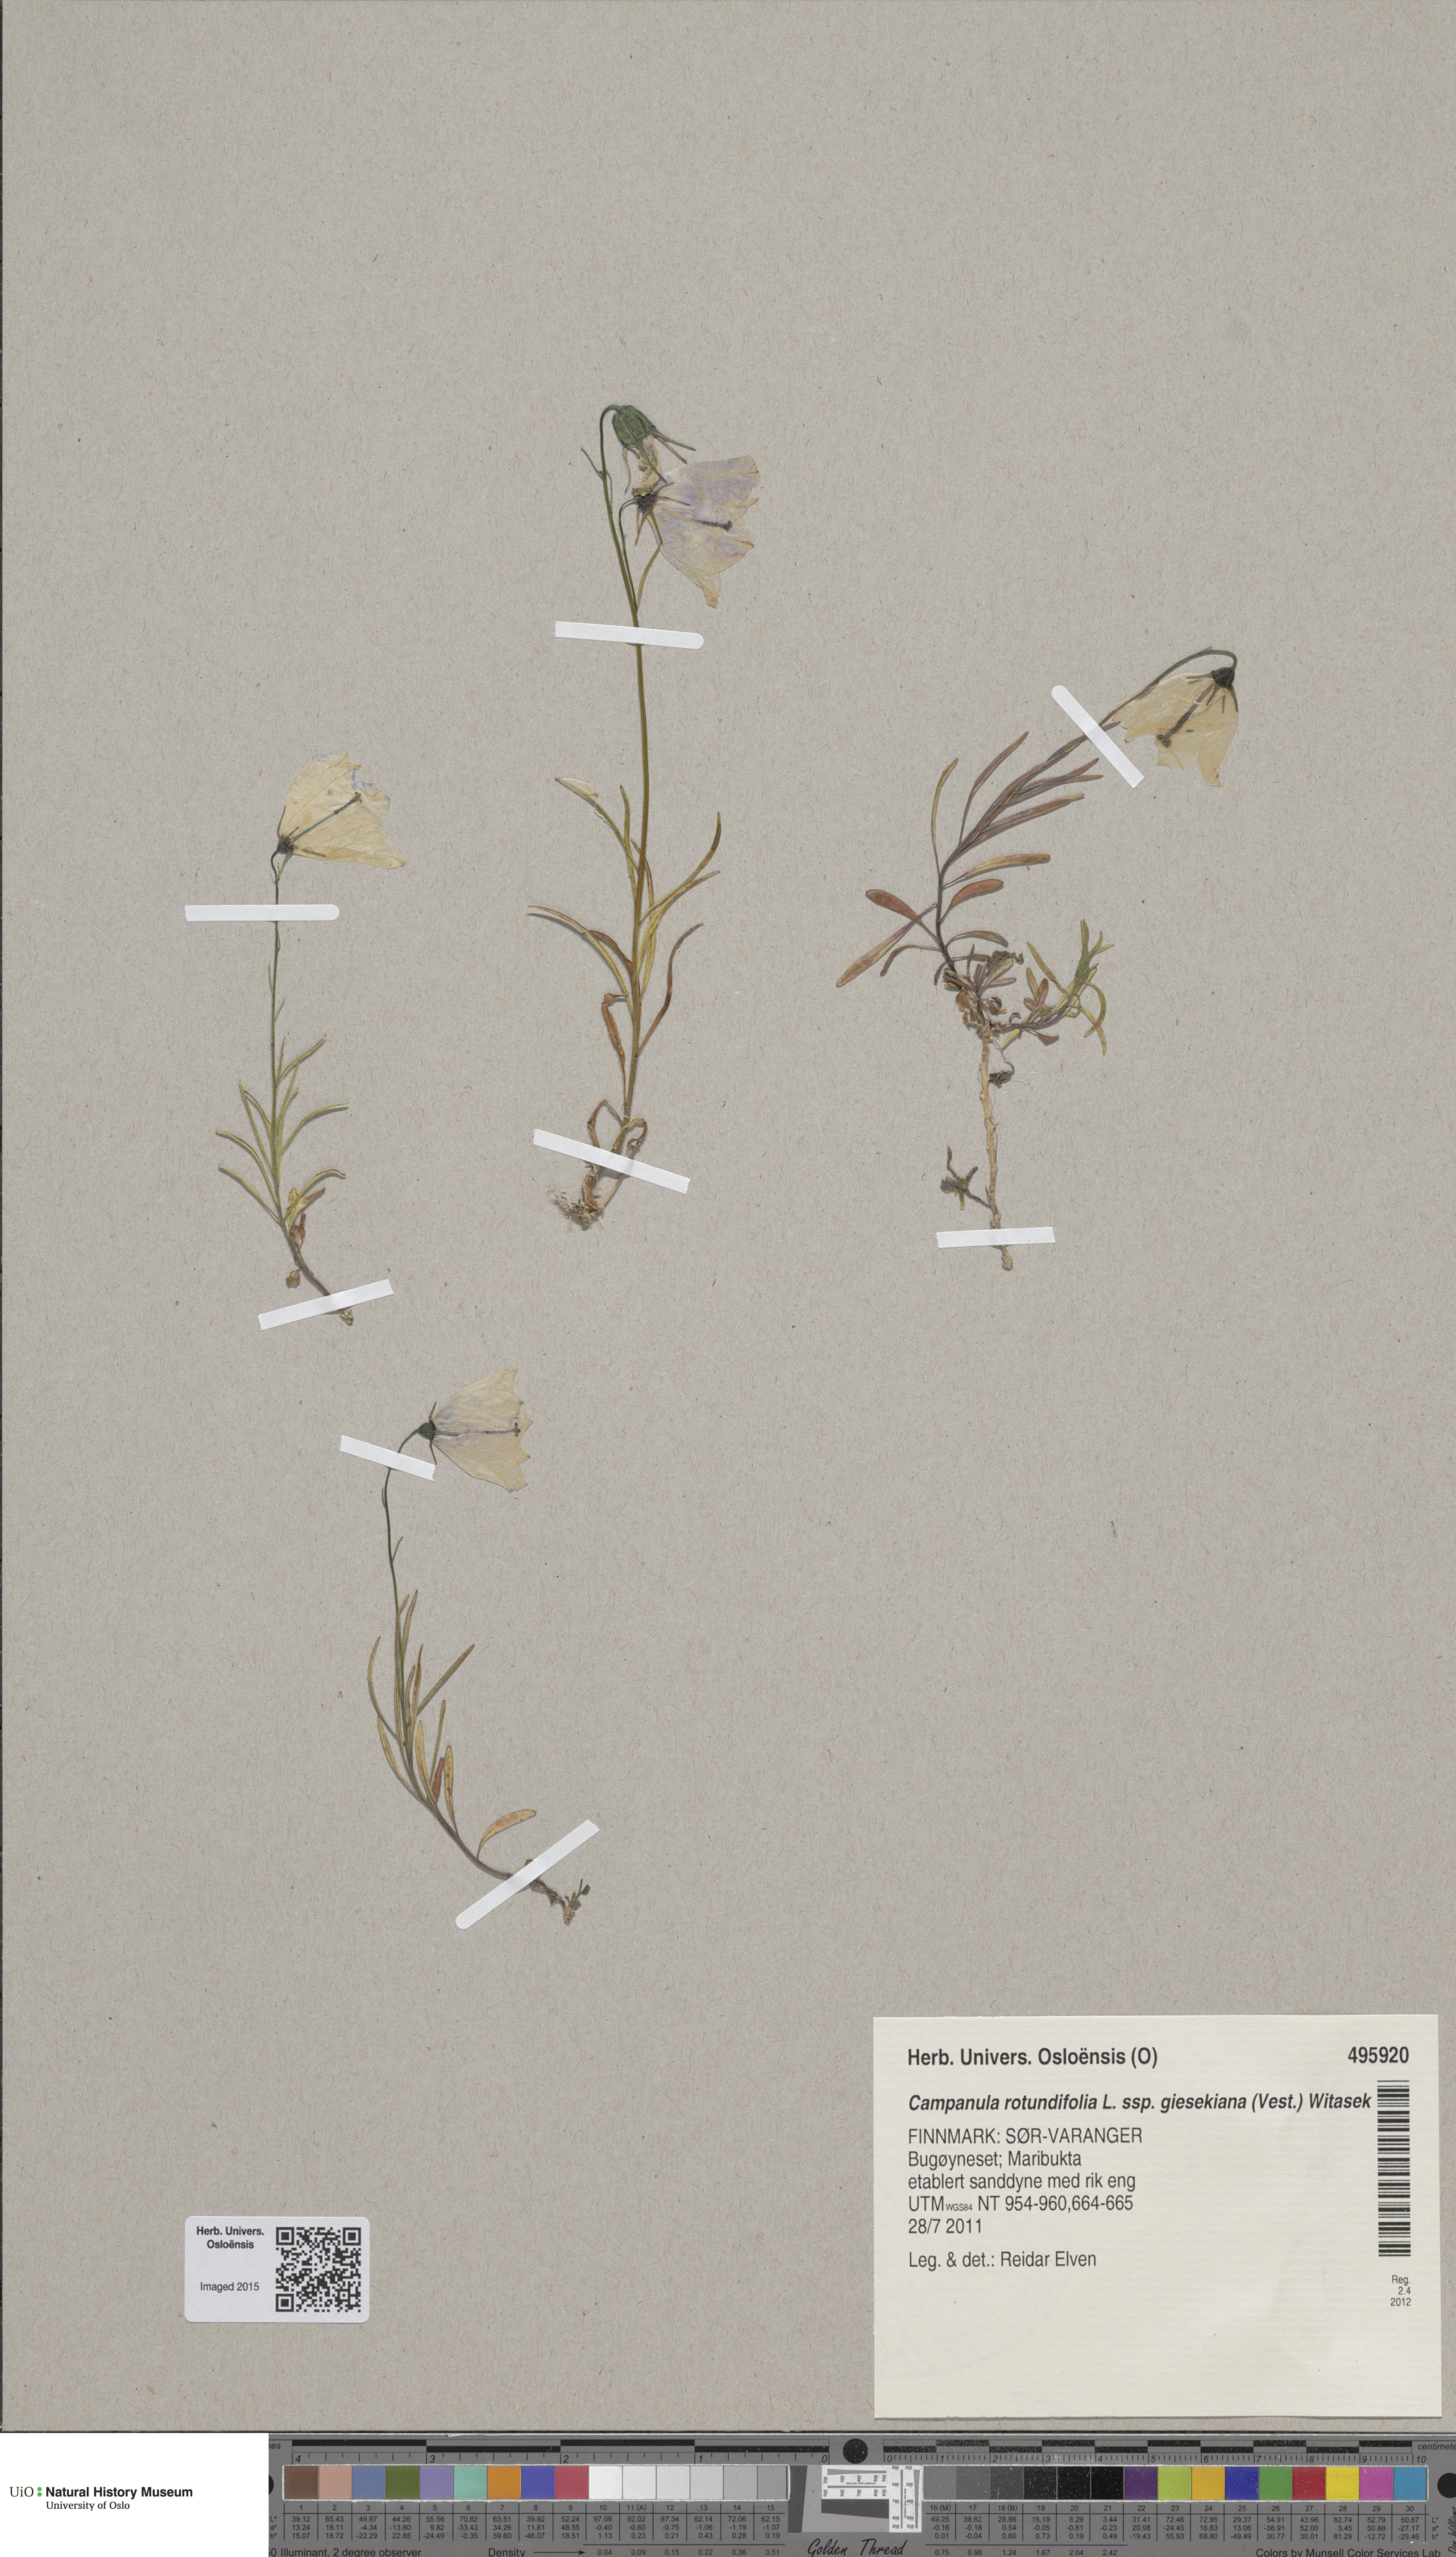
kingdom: Plantae
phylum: Tracheophyta
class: Magnoliopsida
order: Asterales
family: Campanulaceae
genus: Campanula
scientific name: Campanula rotundifolia
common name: Harebell
